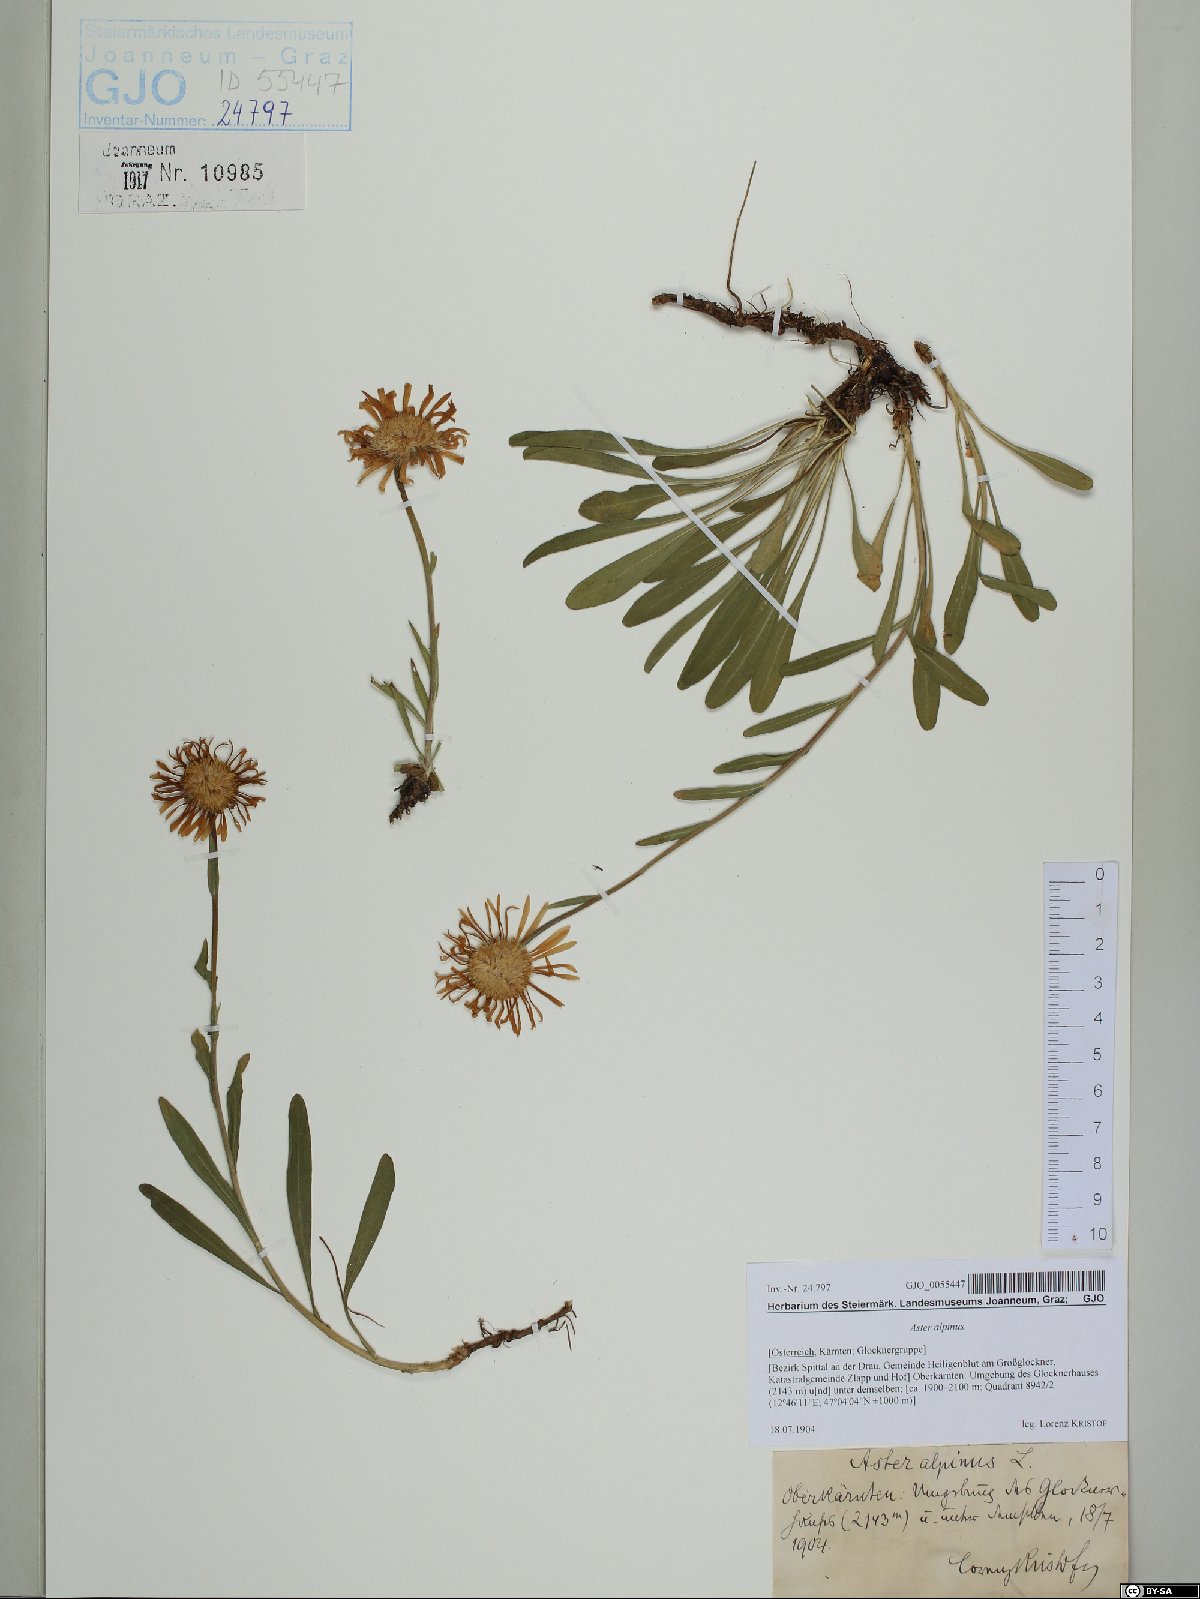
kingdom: Plantae
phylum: Tracheophyta
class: Magnoliopsida
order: Asterales
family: Asteraceae
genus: Aster
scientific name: Aster alpinus
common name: Alpine aster
